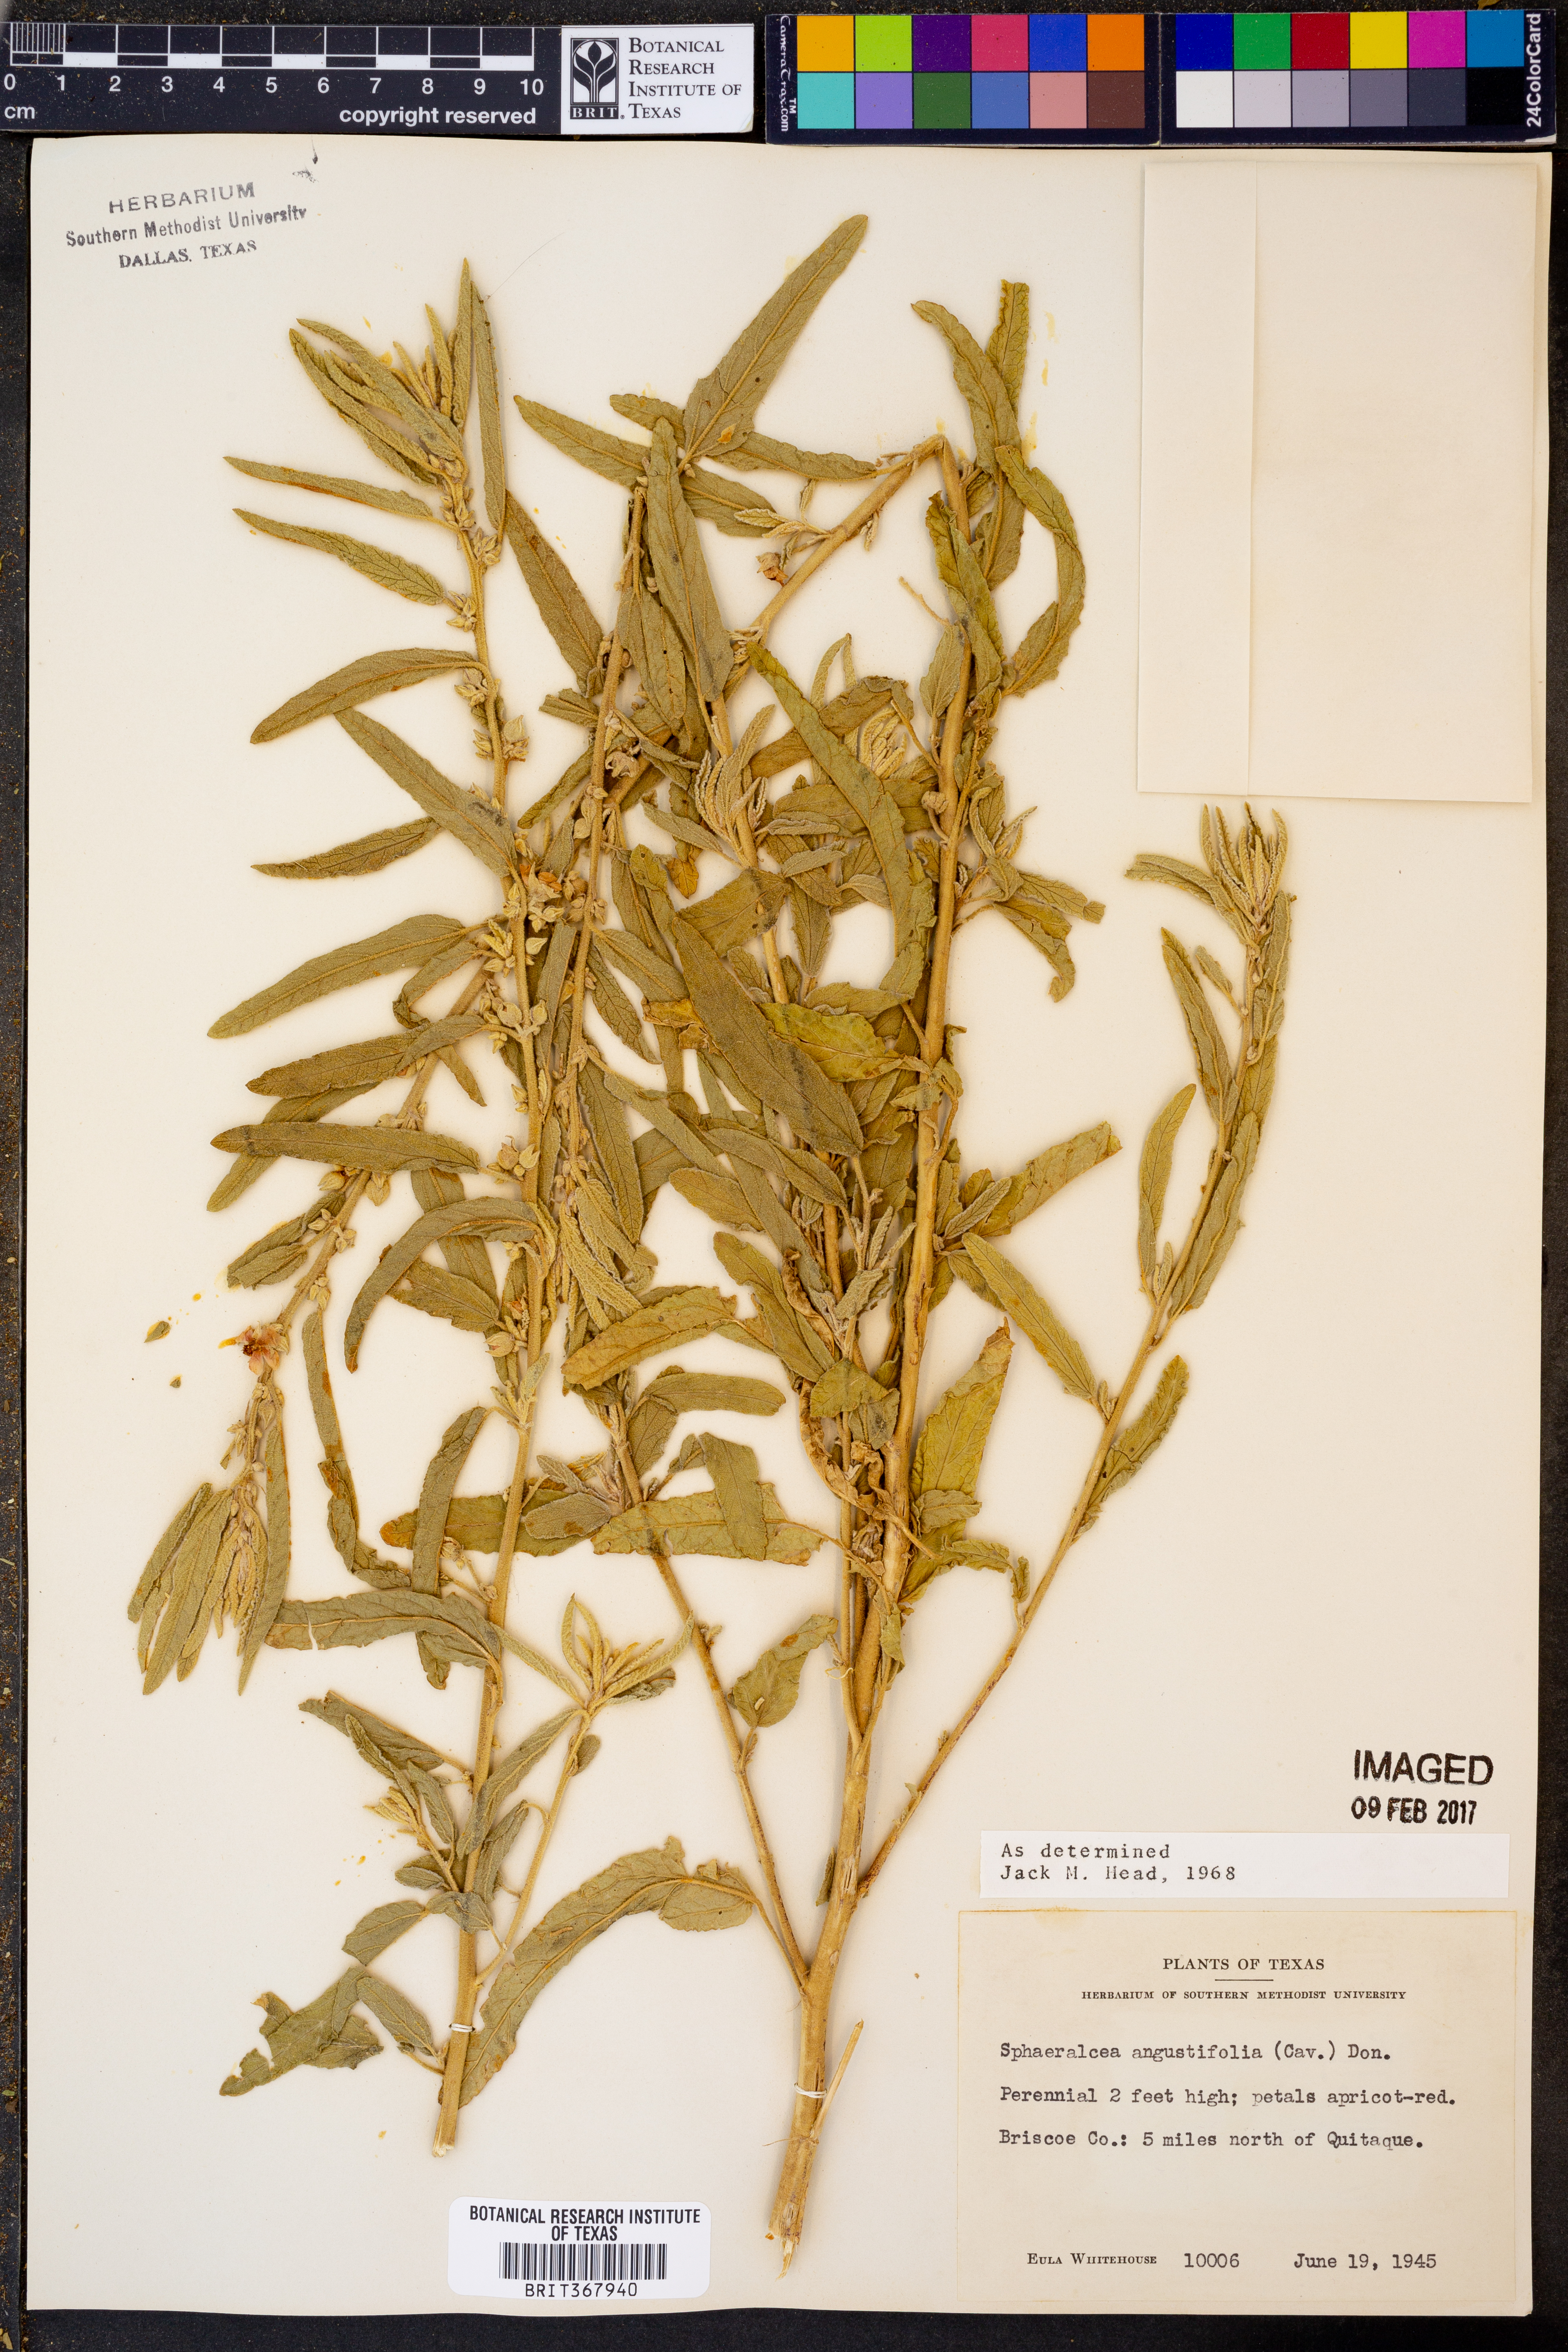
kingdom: Plantae
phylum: Tracheophyta
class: Magnoliopsida
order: Malvales
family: Malvaceae
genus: Sphaeralcea
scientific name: Sphaeralcea angustifolia
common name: Copper globe-mallow
